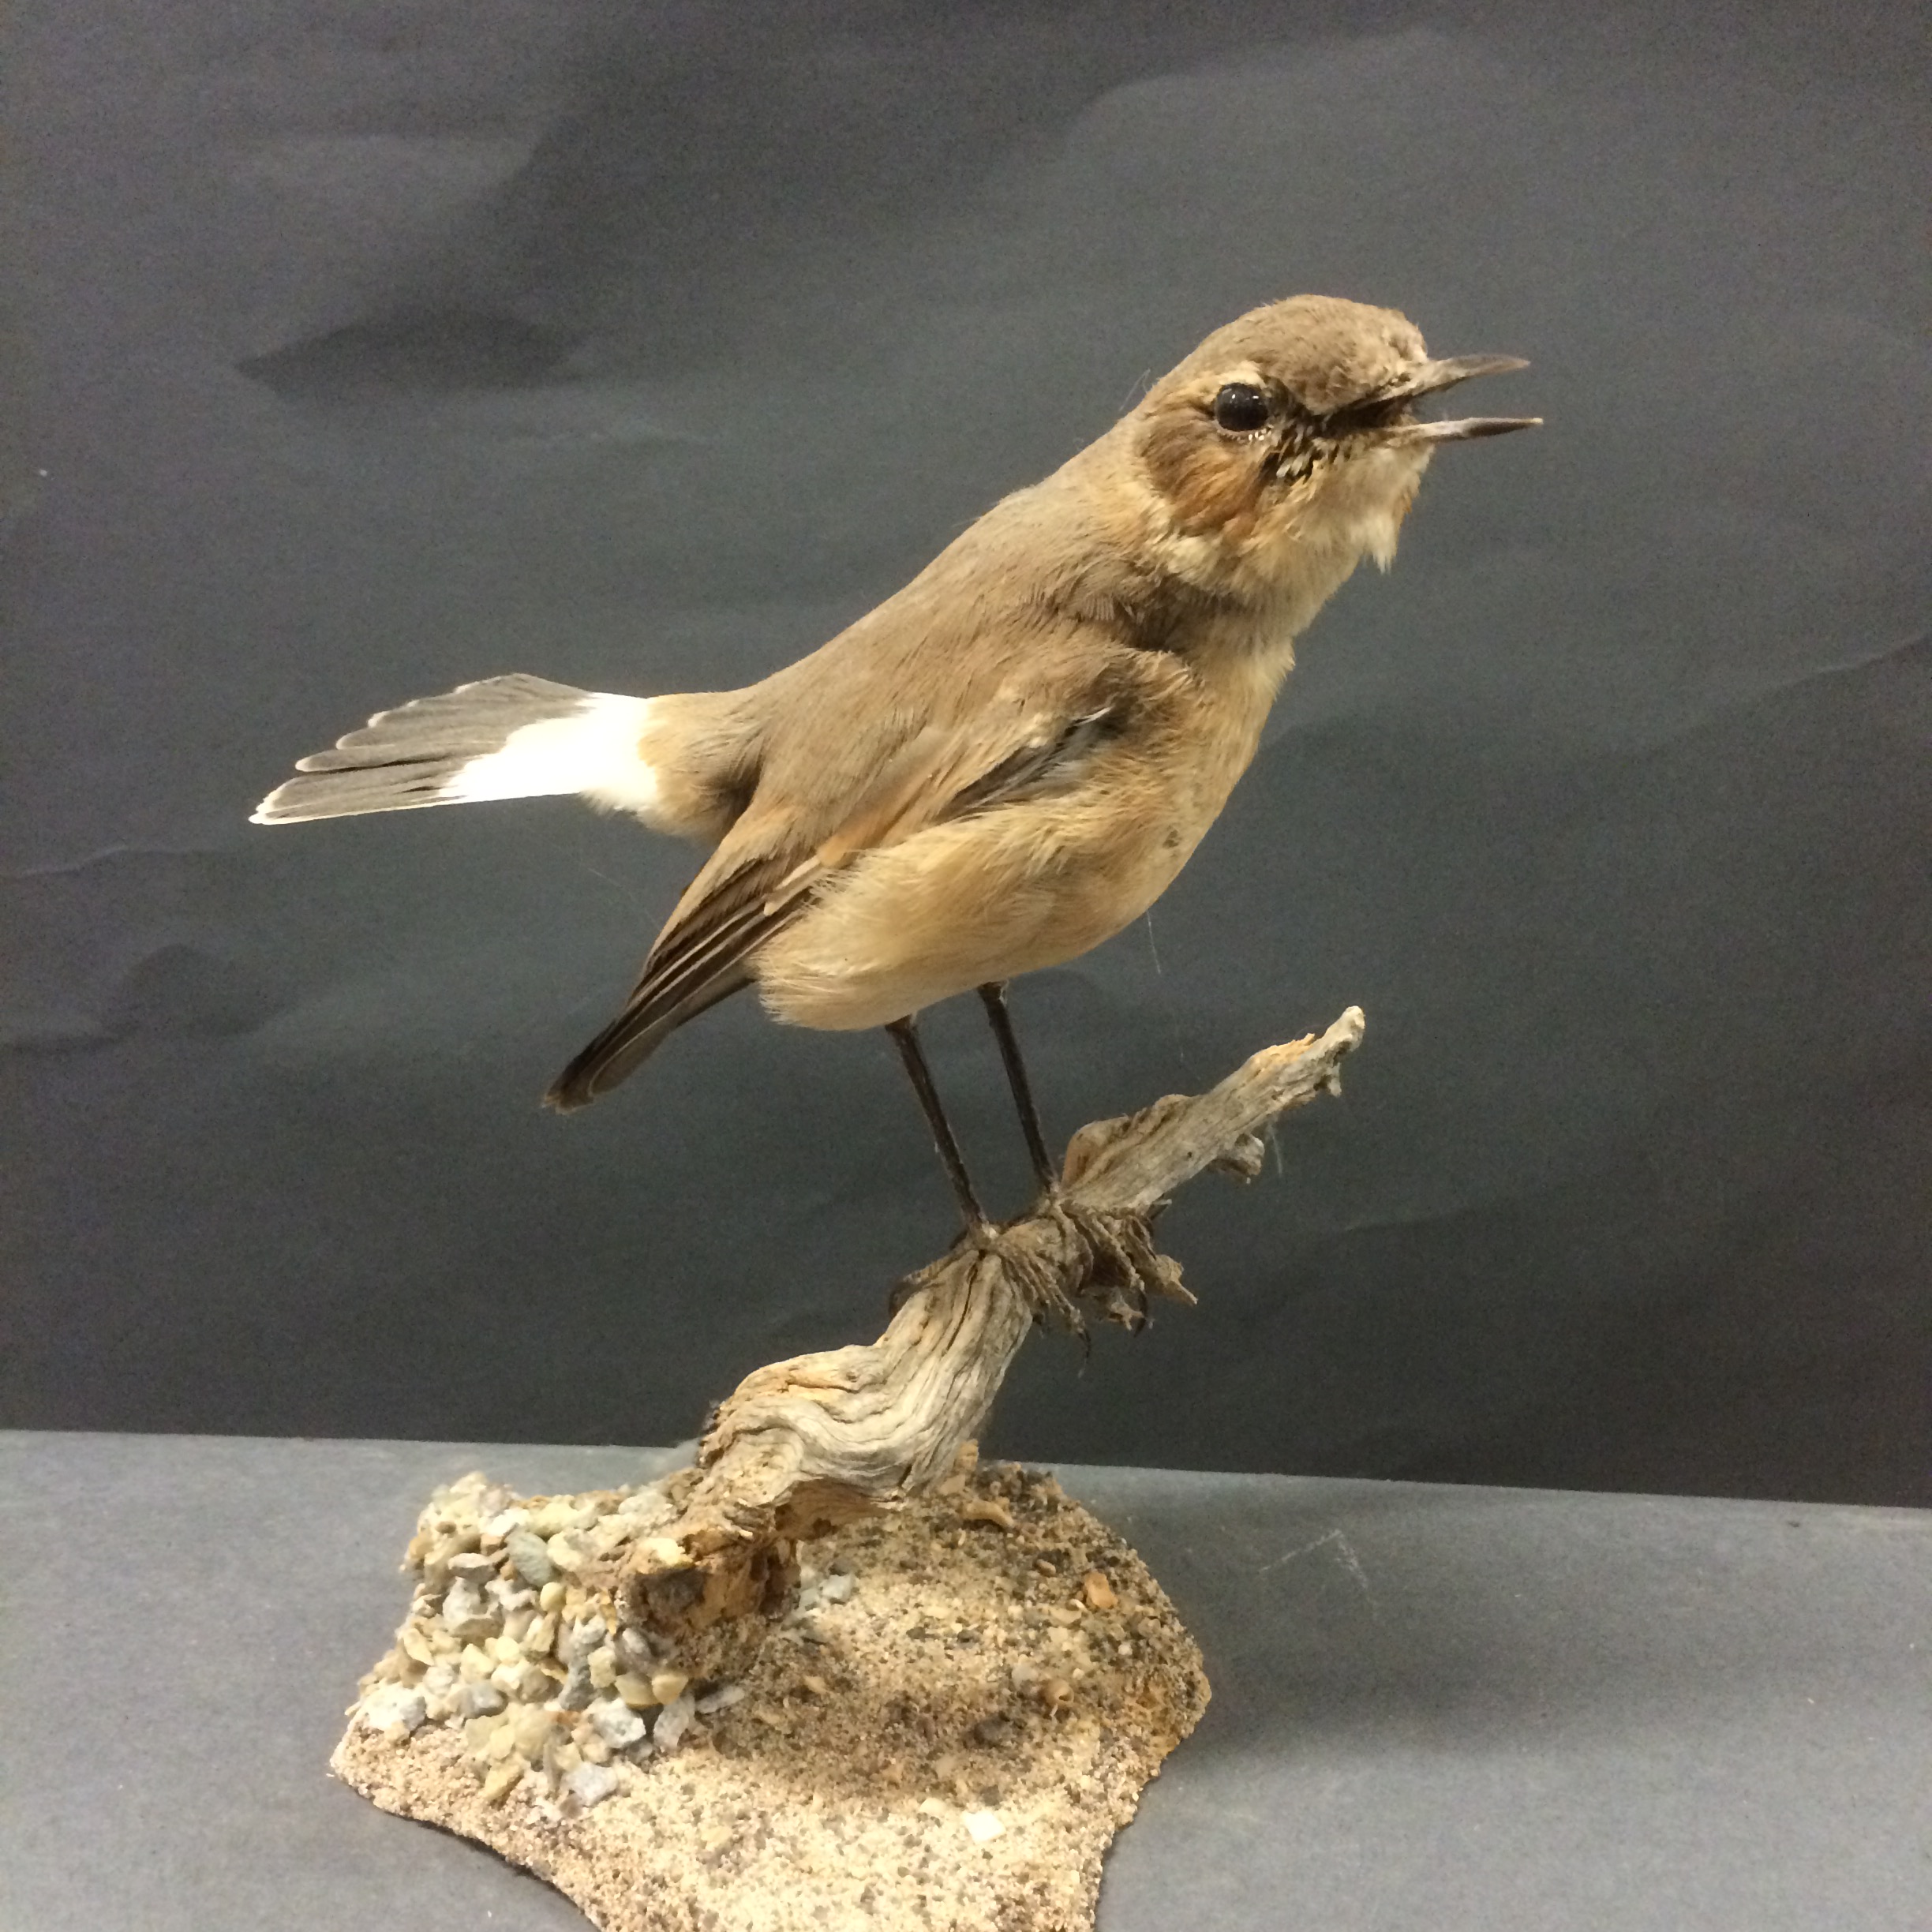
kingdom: Animalia
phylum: Chordata
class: Aves
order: Passeriformes
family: Muscicapidae
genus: Oenanthe
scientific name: Oenanthe isabellina
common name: Isabelline wheatear
